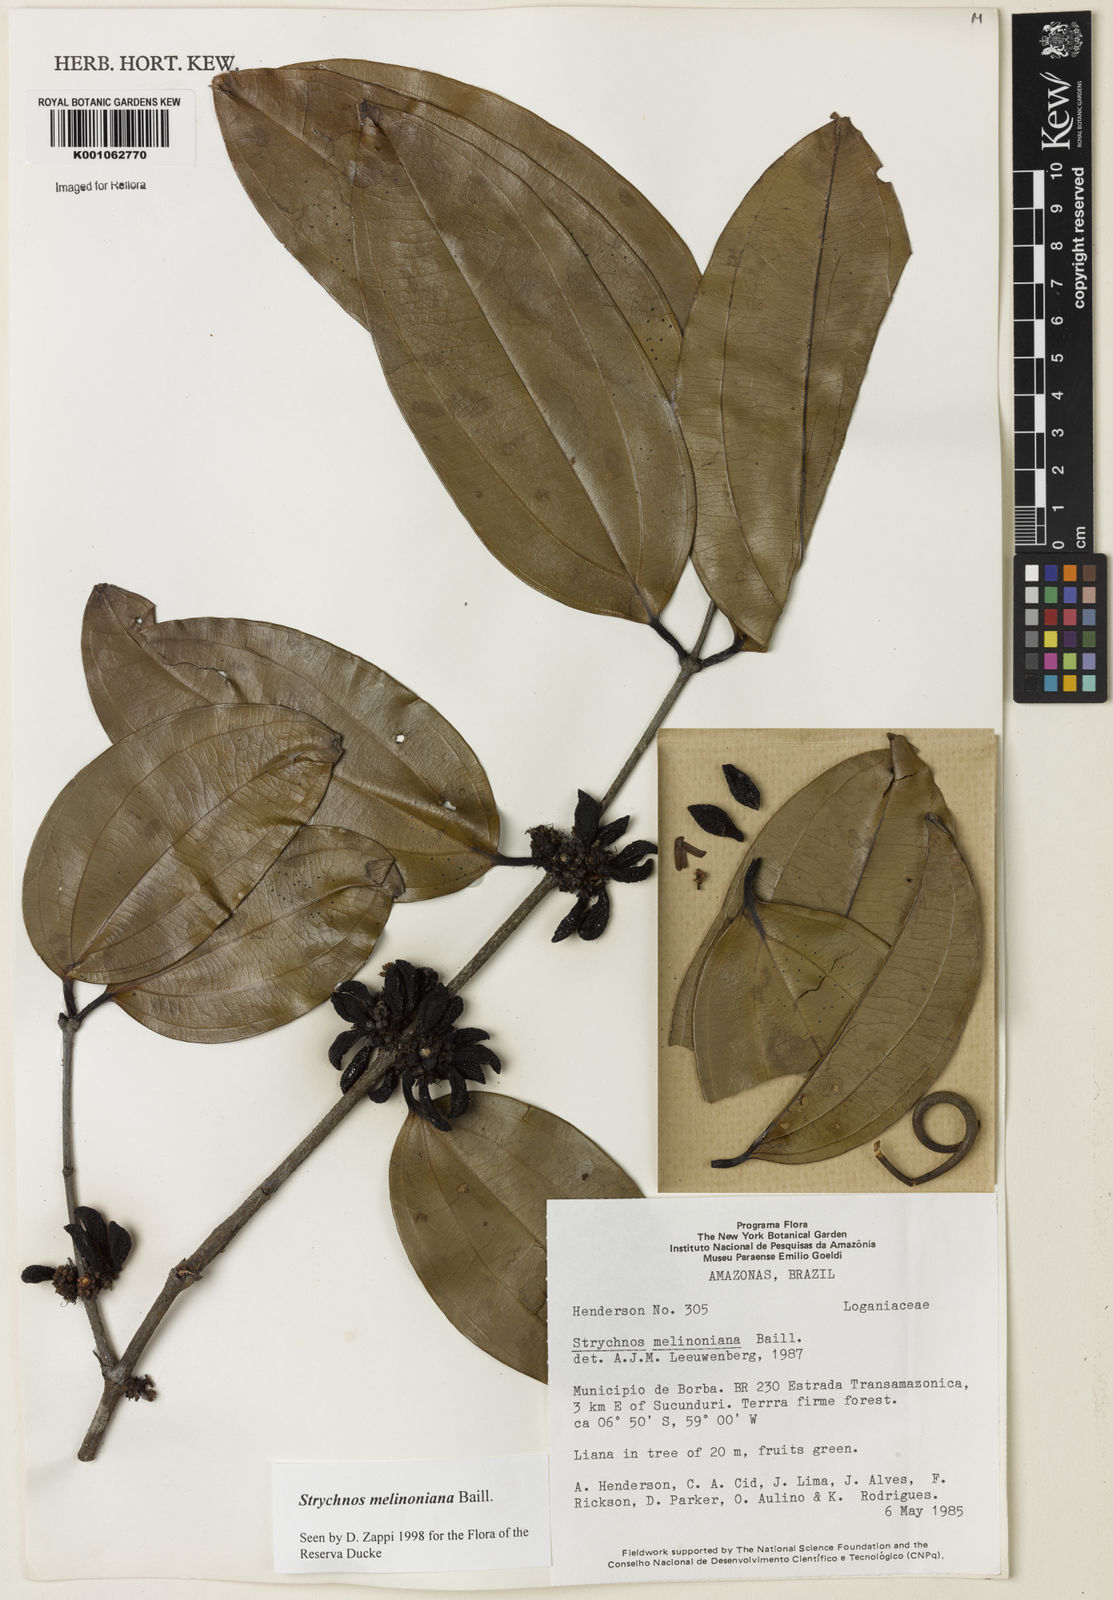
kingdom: Plantae
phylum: Tracheophyta
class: Magnoliopsida
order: Gentianales
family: Loganiaceae
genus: Strychnos
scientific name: Strychnos melinoniana
